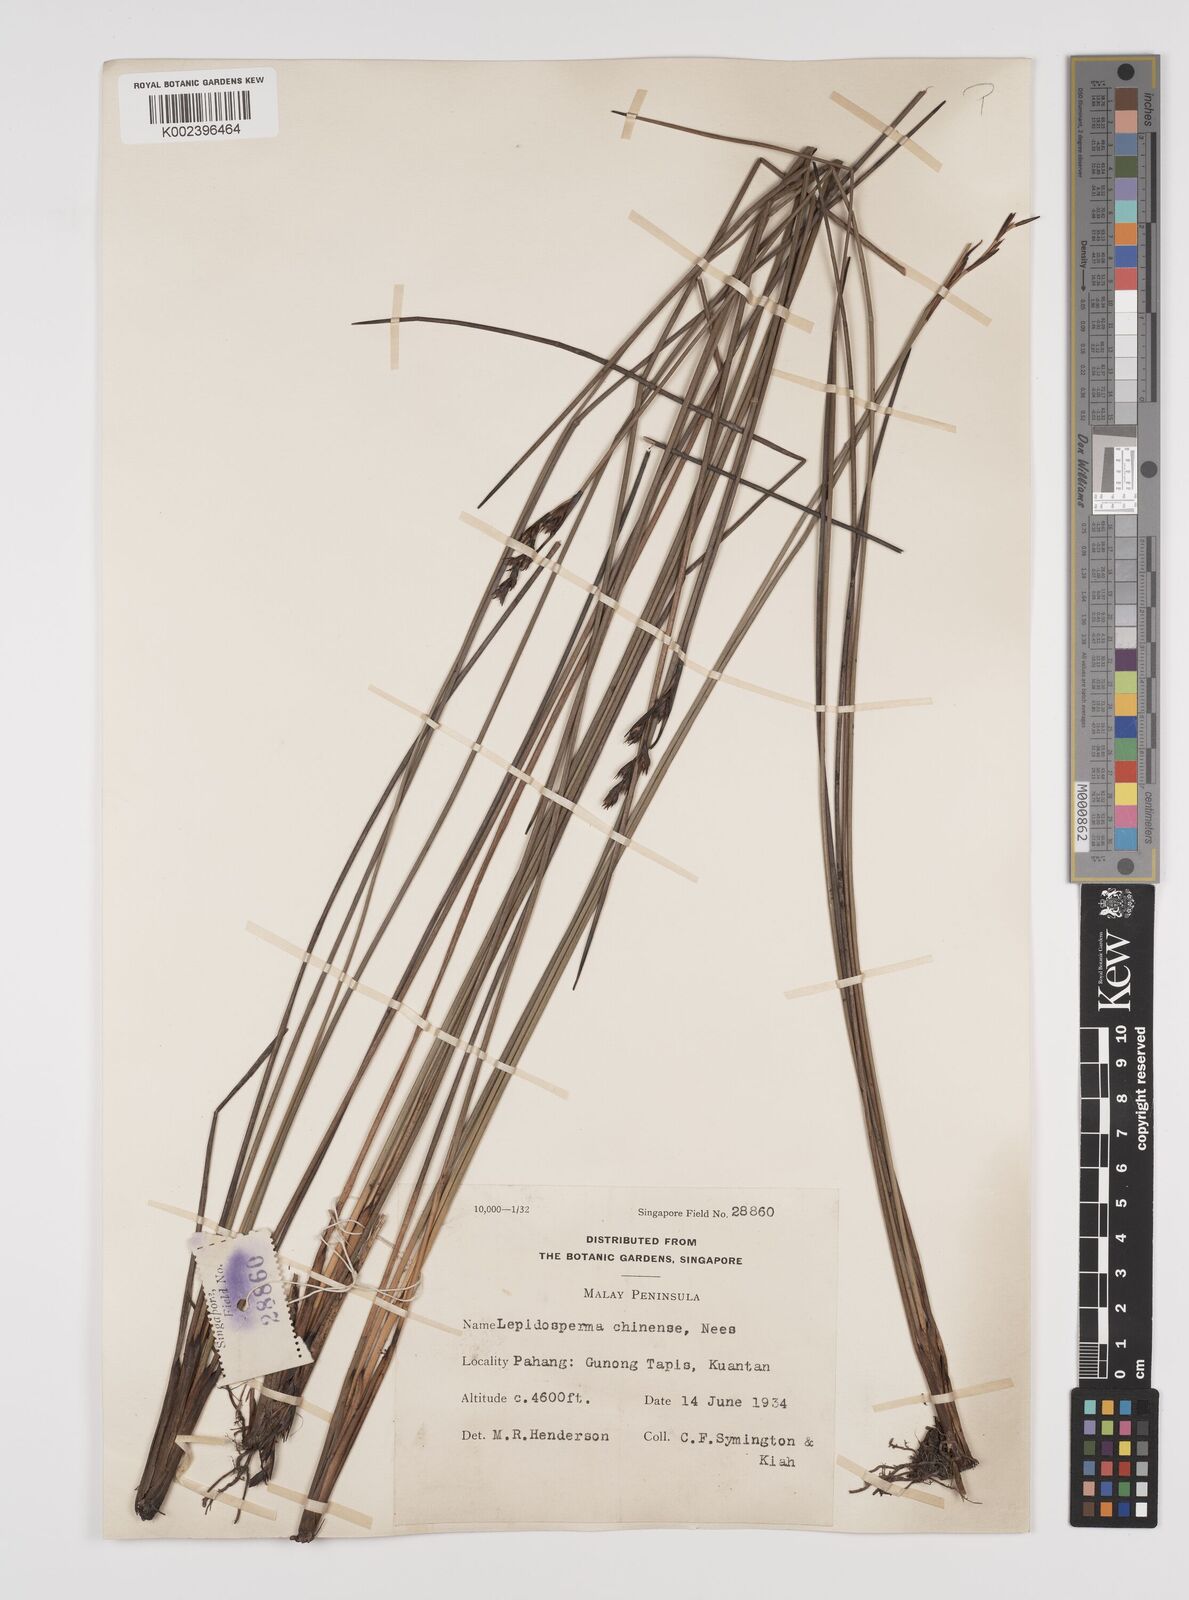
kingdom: Plantae
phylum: Tracheophyta
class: Liliopsida
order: Poales
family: Cyperaceae
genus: Lepidosperma
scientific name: Lepidosperma chinense
